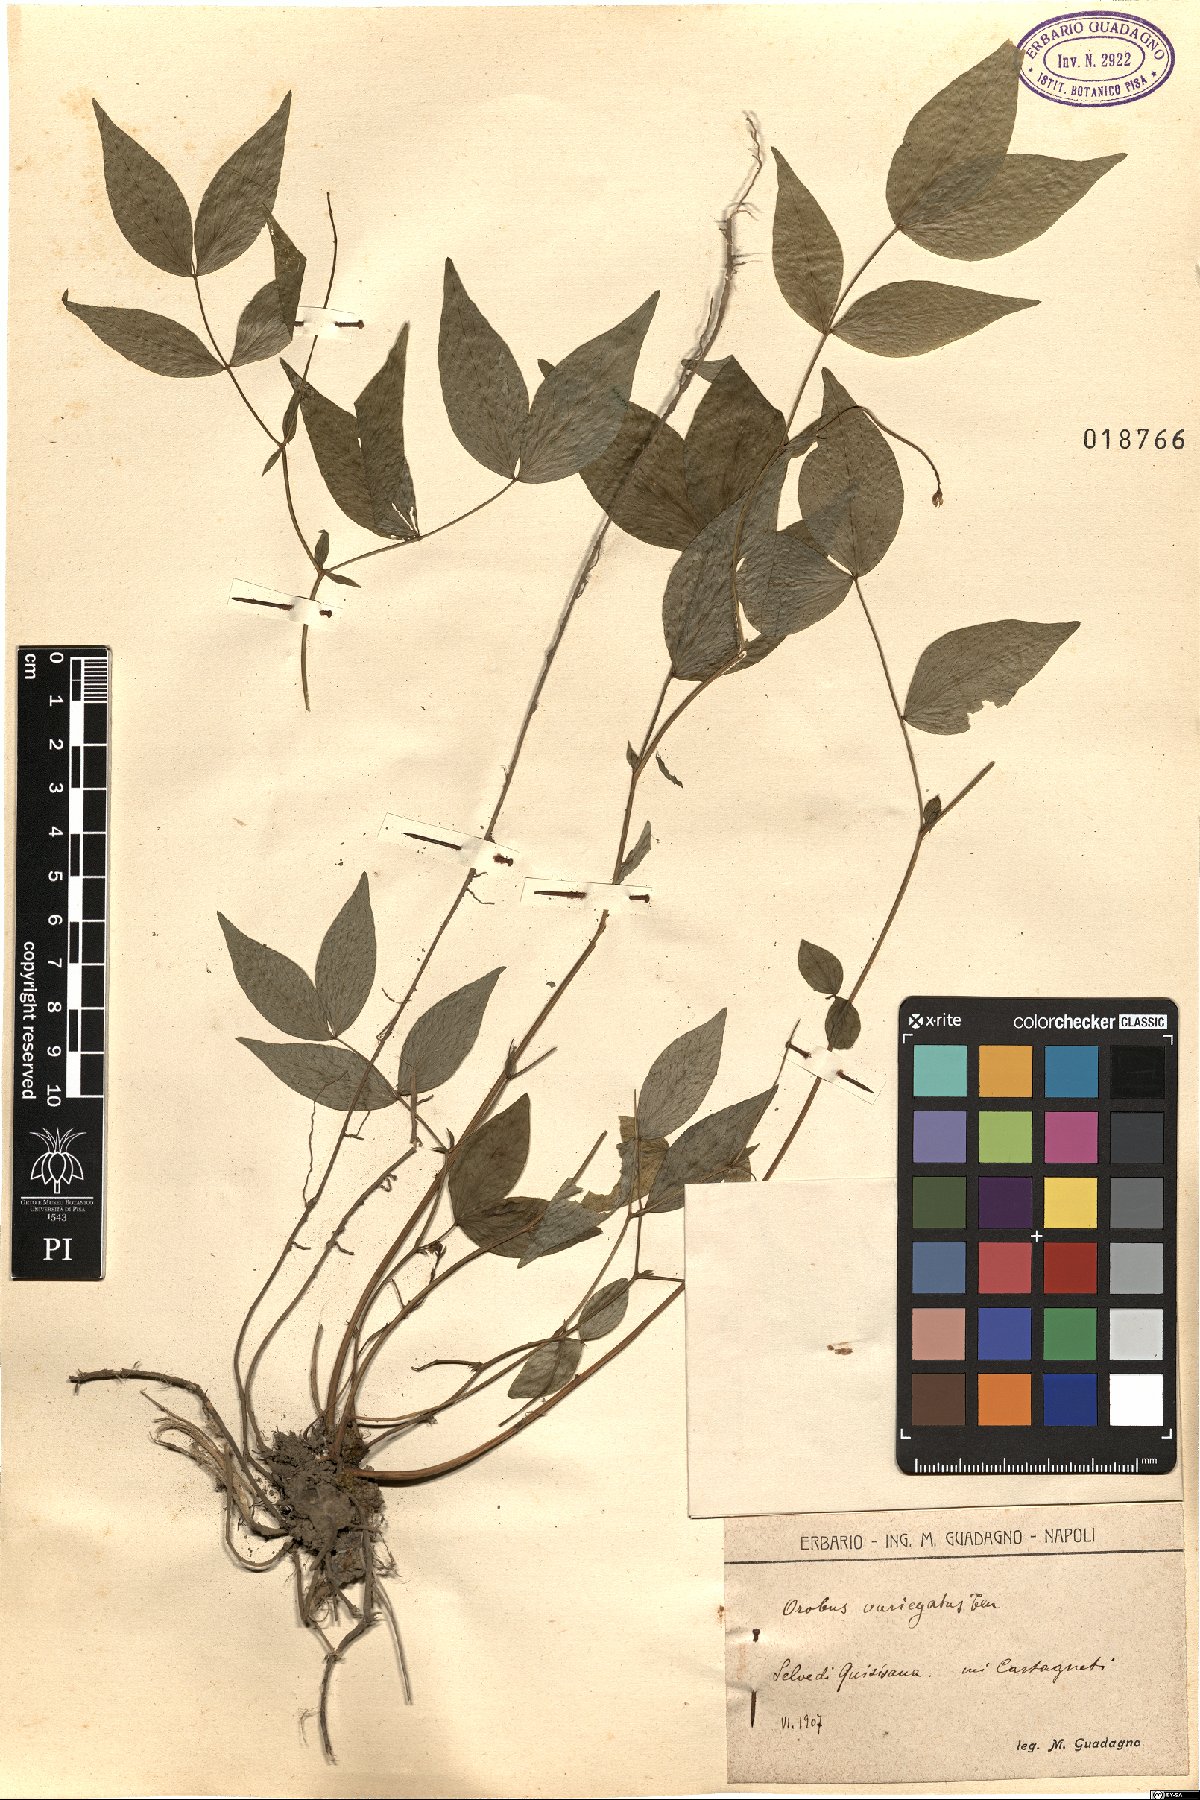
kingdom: Plantae
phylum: Tracheophyta
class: Magnoliopsida
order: Fabales
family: Fabaceae
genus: Lathyrus
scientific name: Lathyrus venetus
